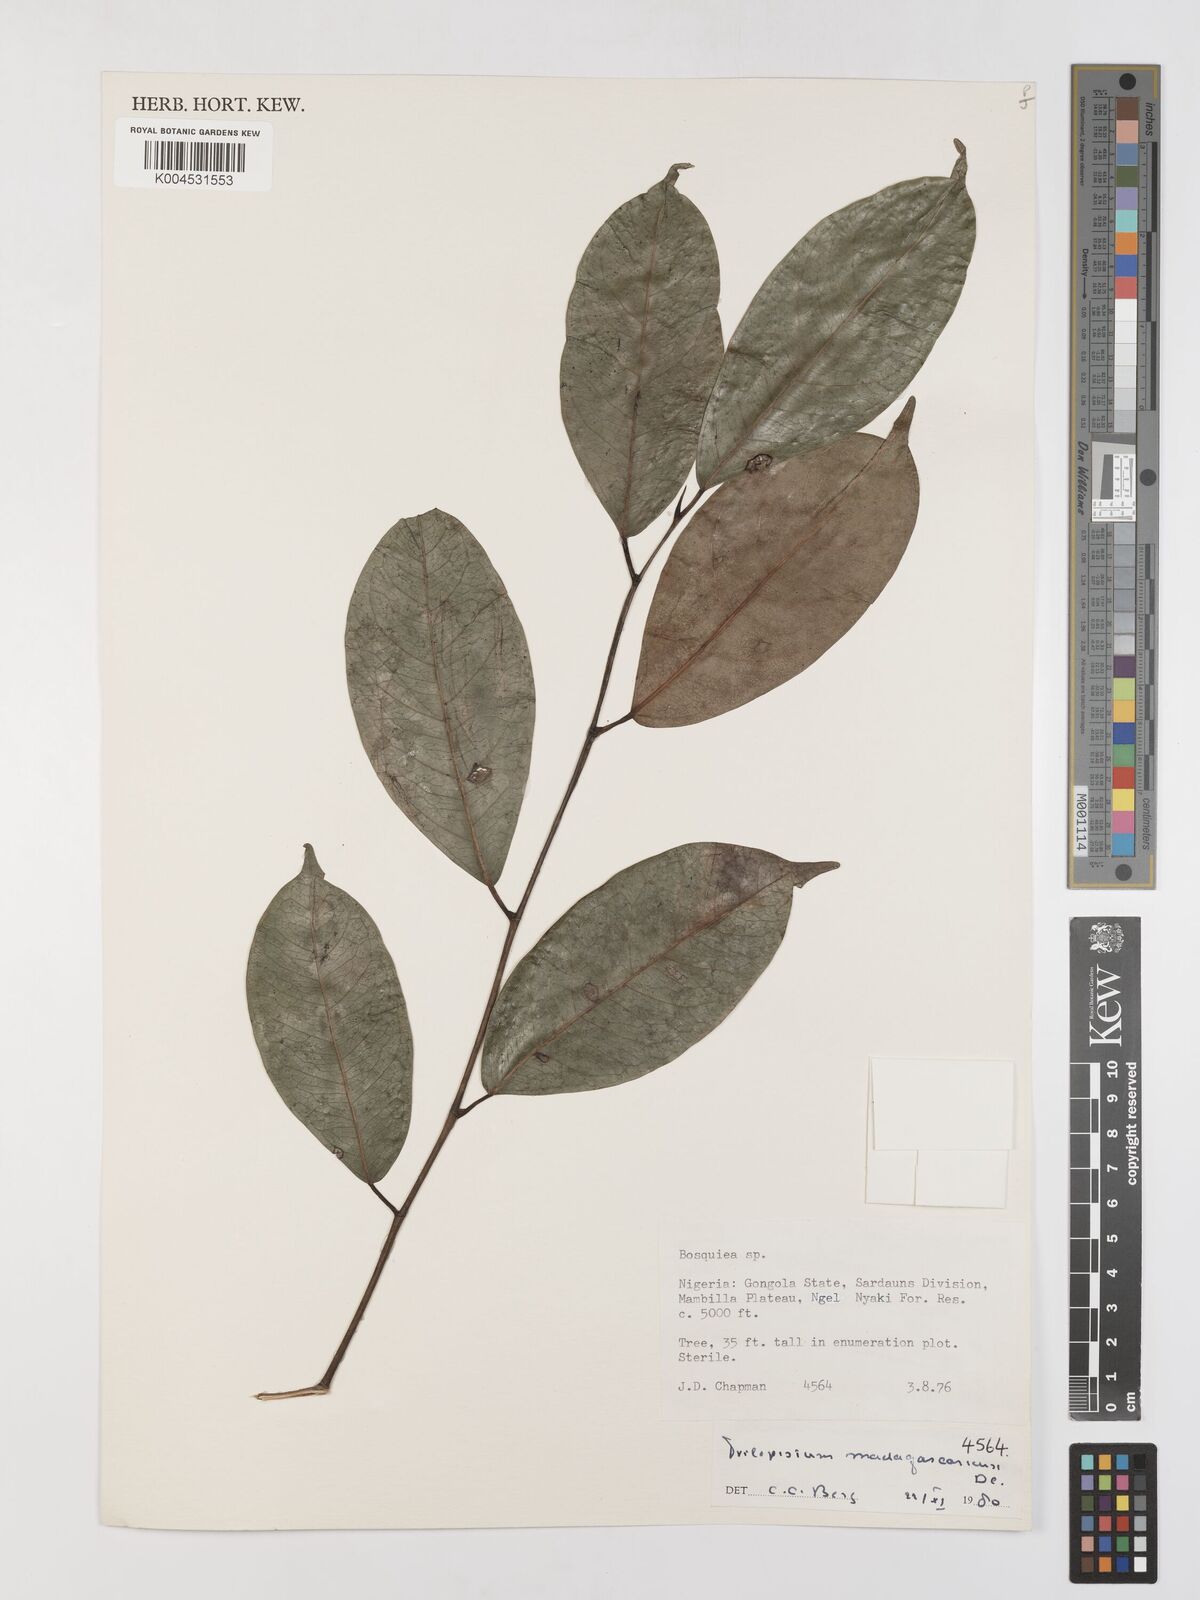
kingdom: Plantae
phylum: Tracheophyta
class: Magnoliopsida
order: Rosales
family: Moraceae
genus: Trilepisium
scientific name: Trilepisium madagascariense
